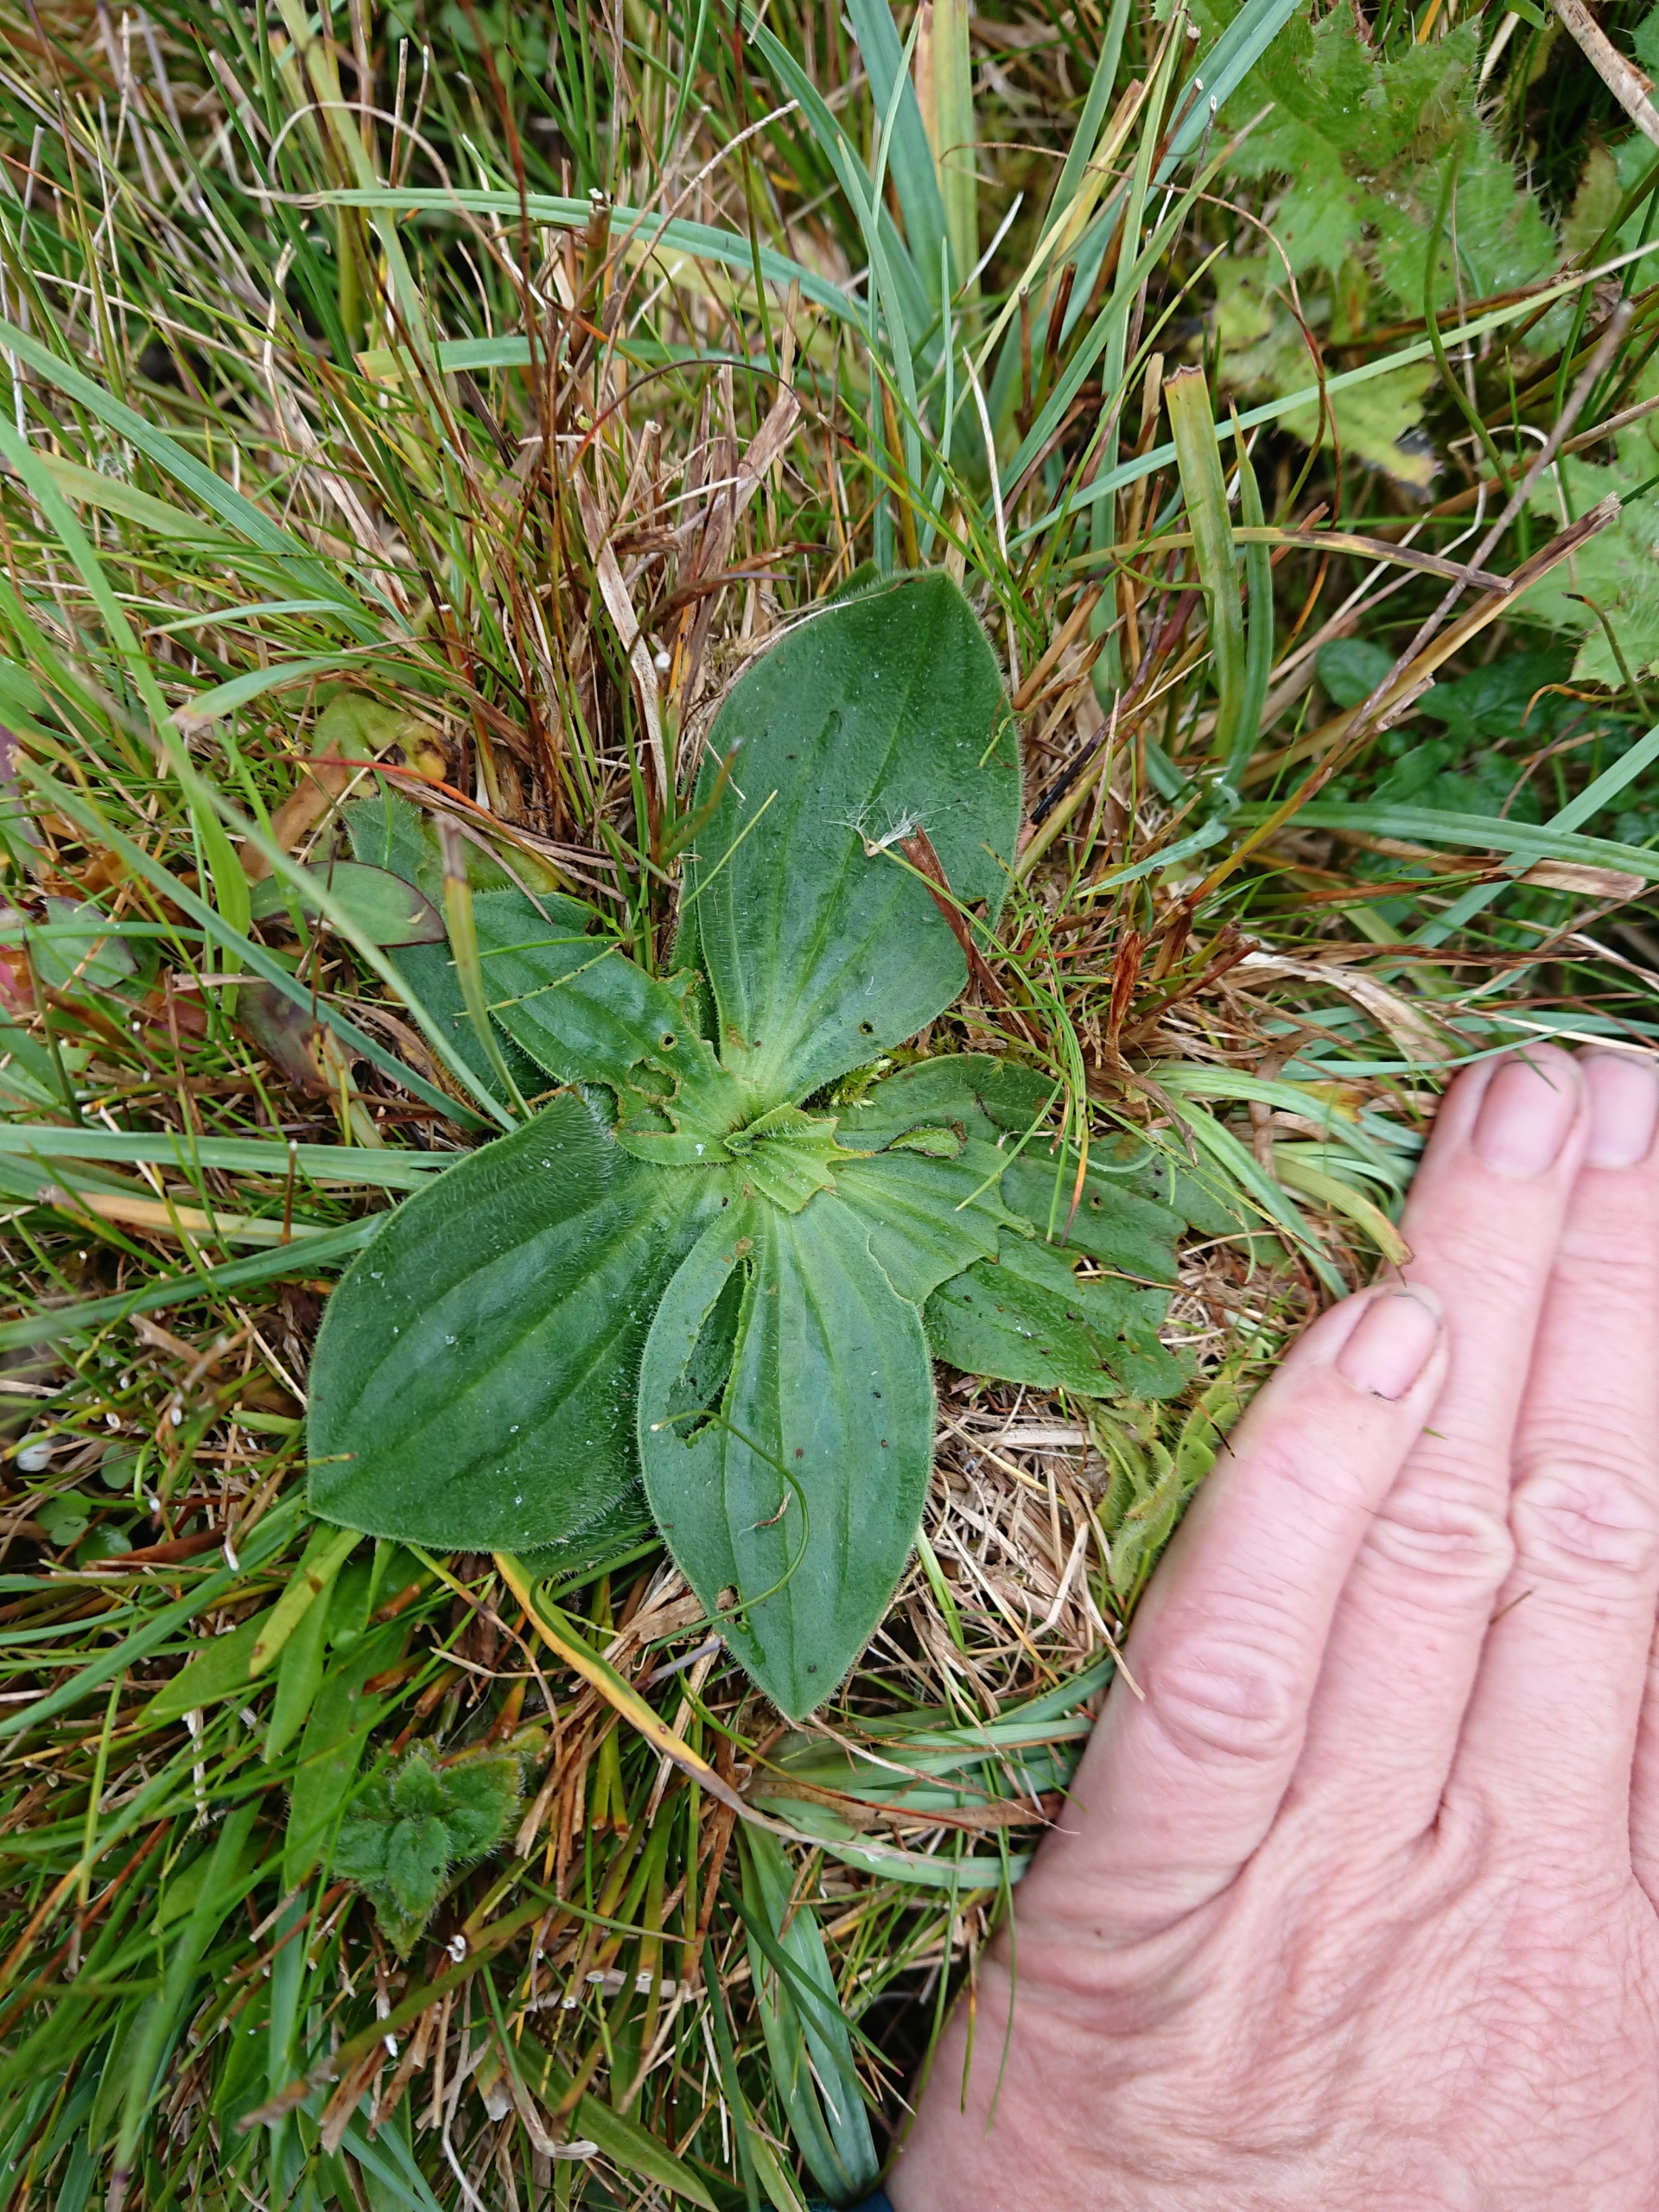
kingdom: Plantae
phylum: Tracheophyta
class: Magnoliopsida
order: Lamiales
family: Plantaginaceae
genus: Plantago
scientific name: Plantago media
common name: Dunet vejbred
